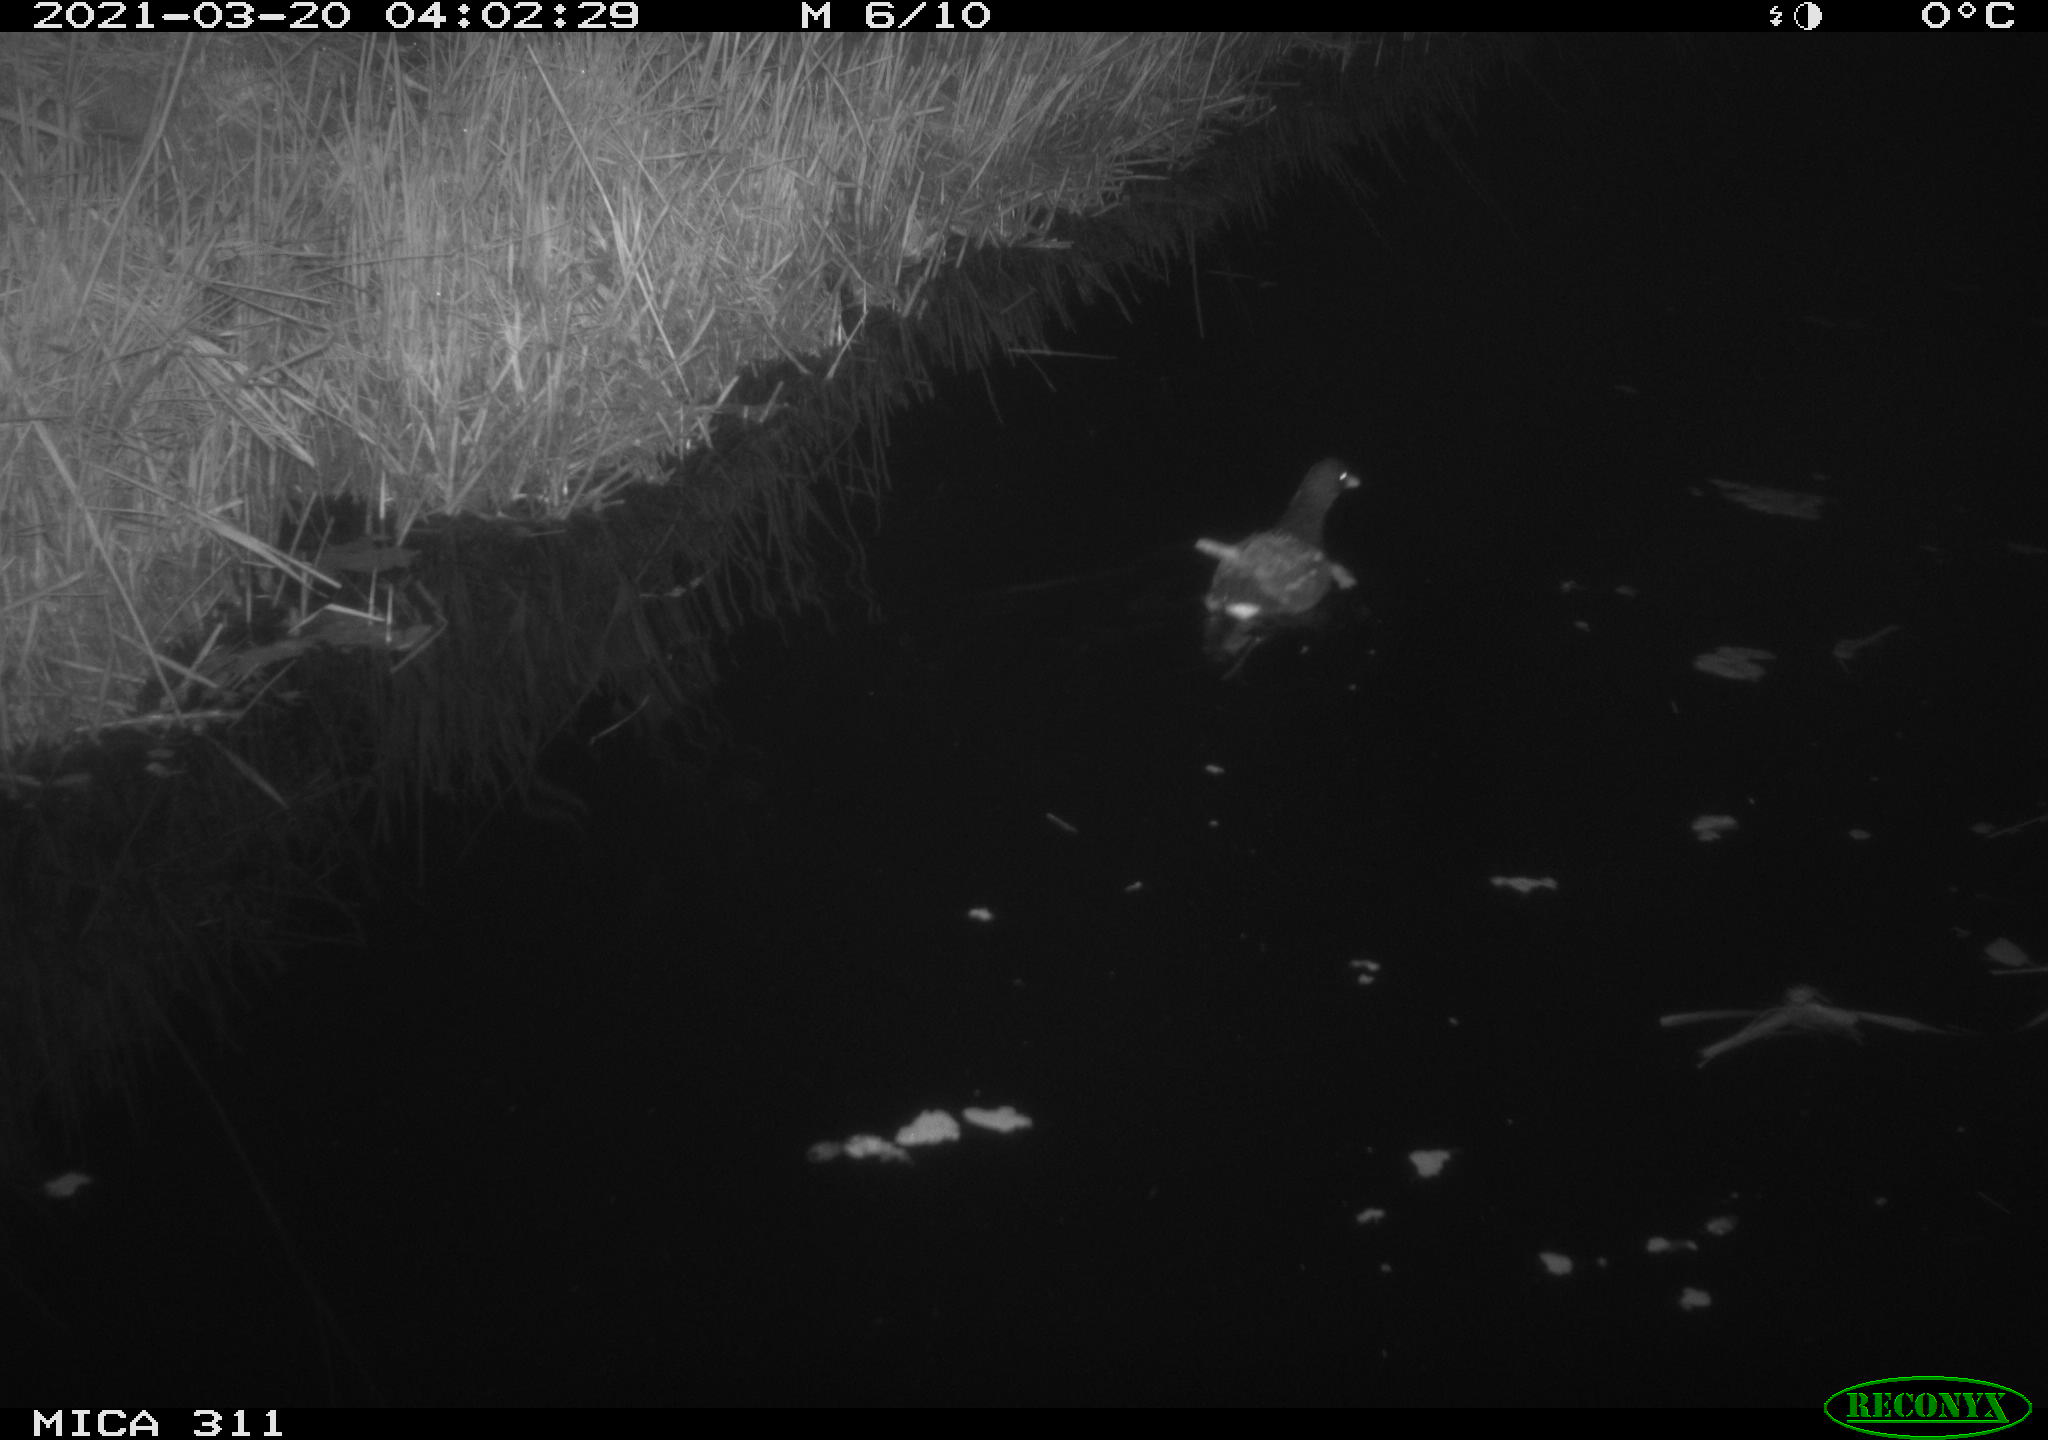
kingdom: Animalia
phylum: Chordata
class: Aves
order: Gruiformes
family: Rallidae
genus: Gallinula
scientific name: Gallinula chloropus
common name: Common moorhen
